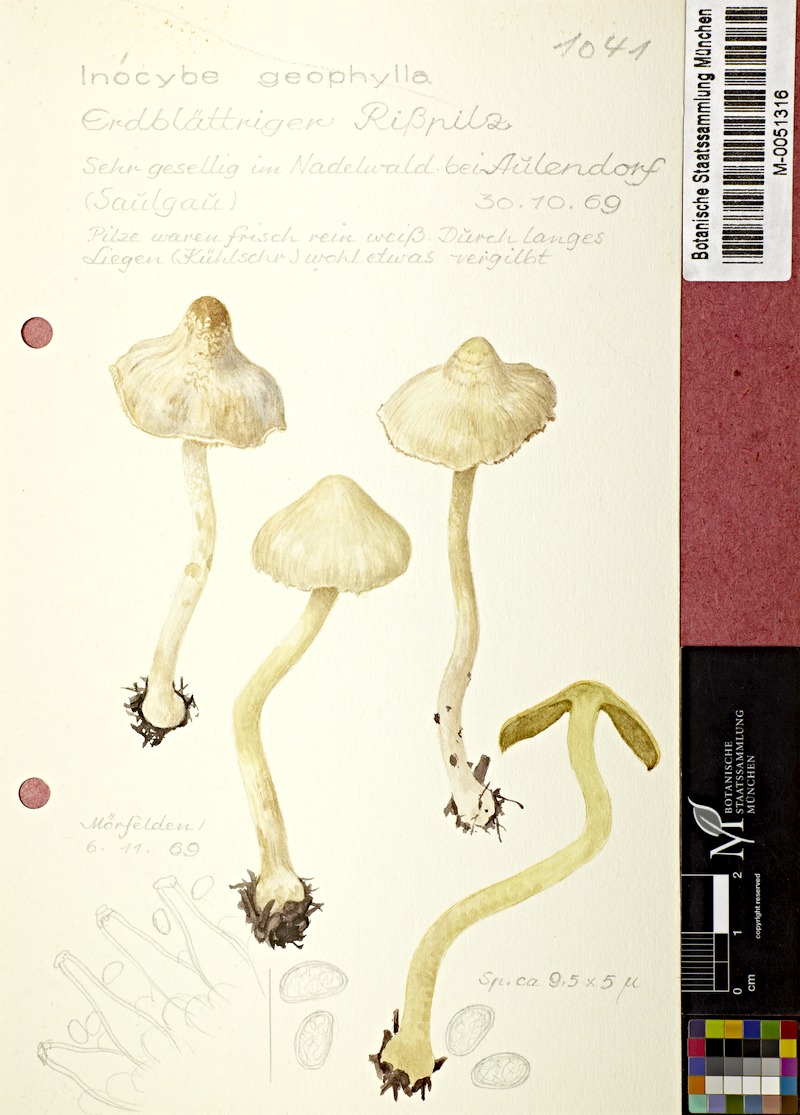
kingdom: Fungi
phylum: Basidiomycota
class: Agaricomycetes
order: Agaricales
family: Inocybaceae
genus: Inocybe
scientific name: Inocybe geophylla
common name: White fibrecap
